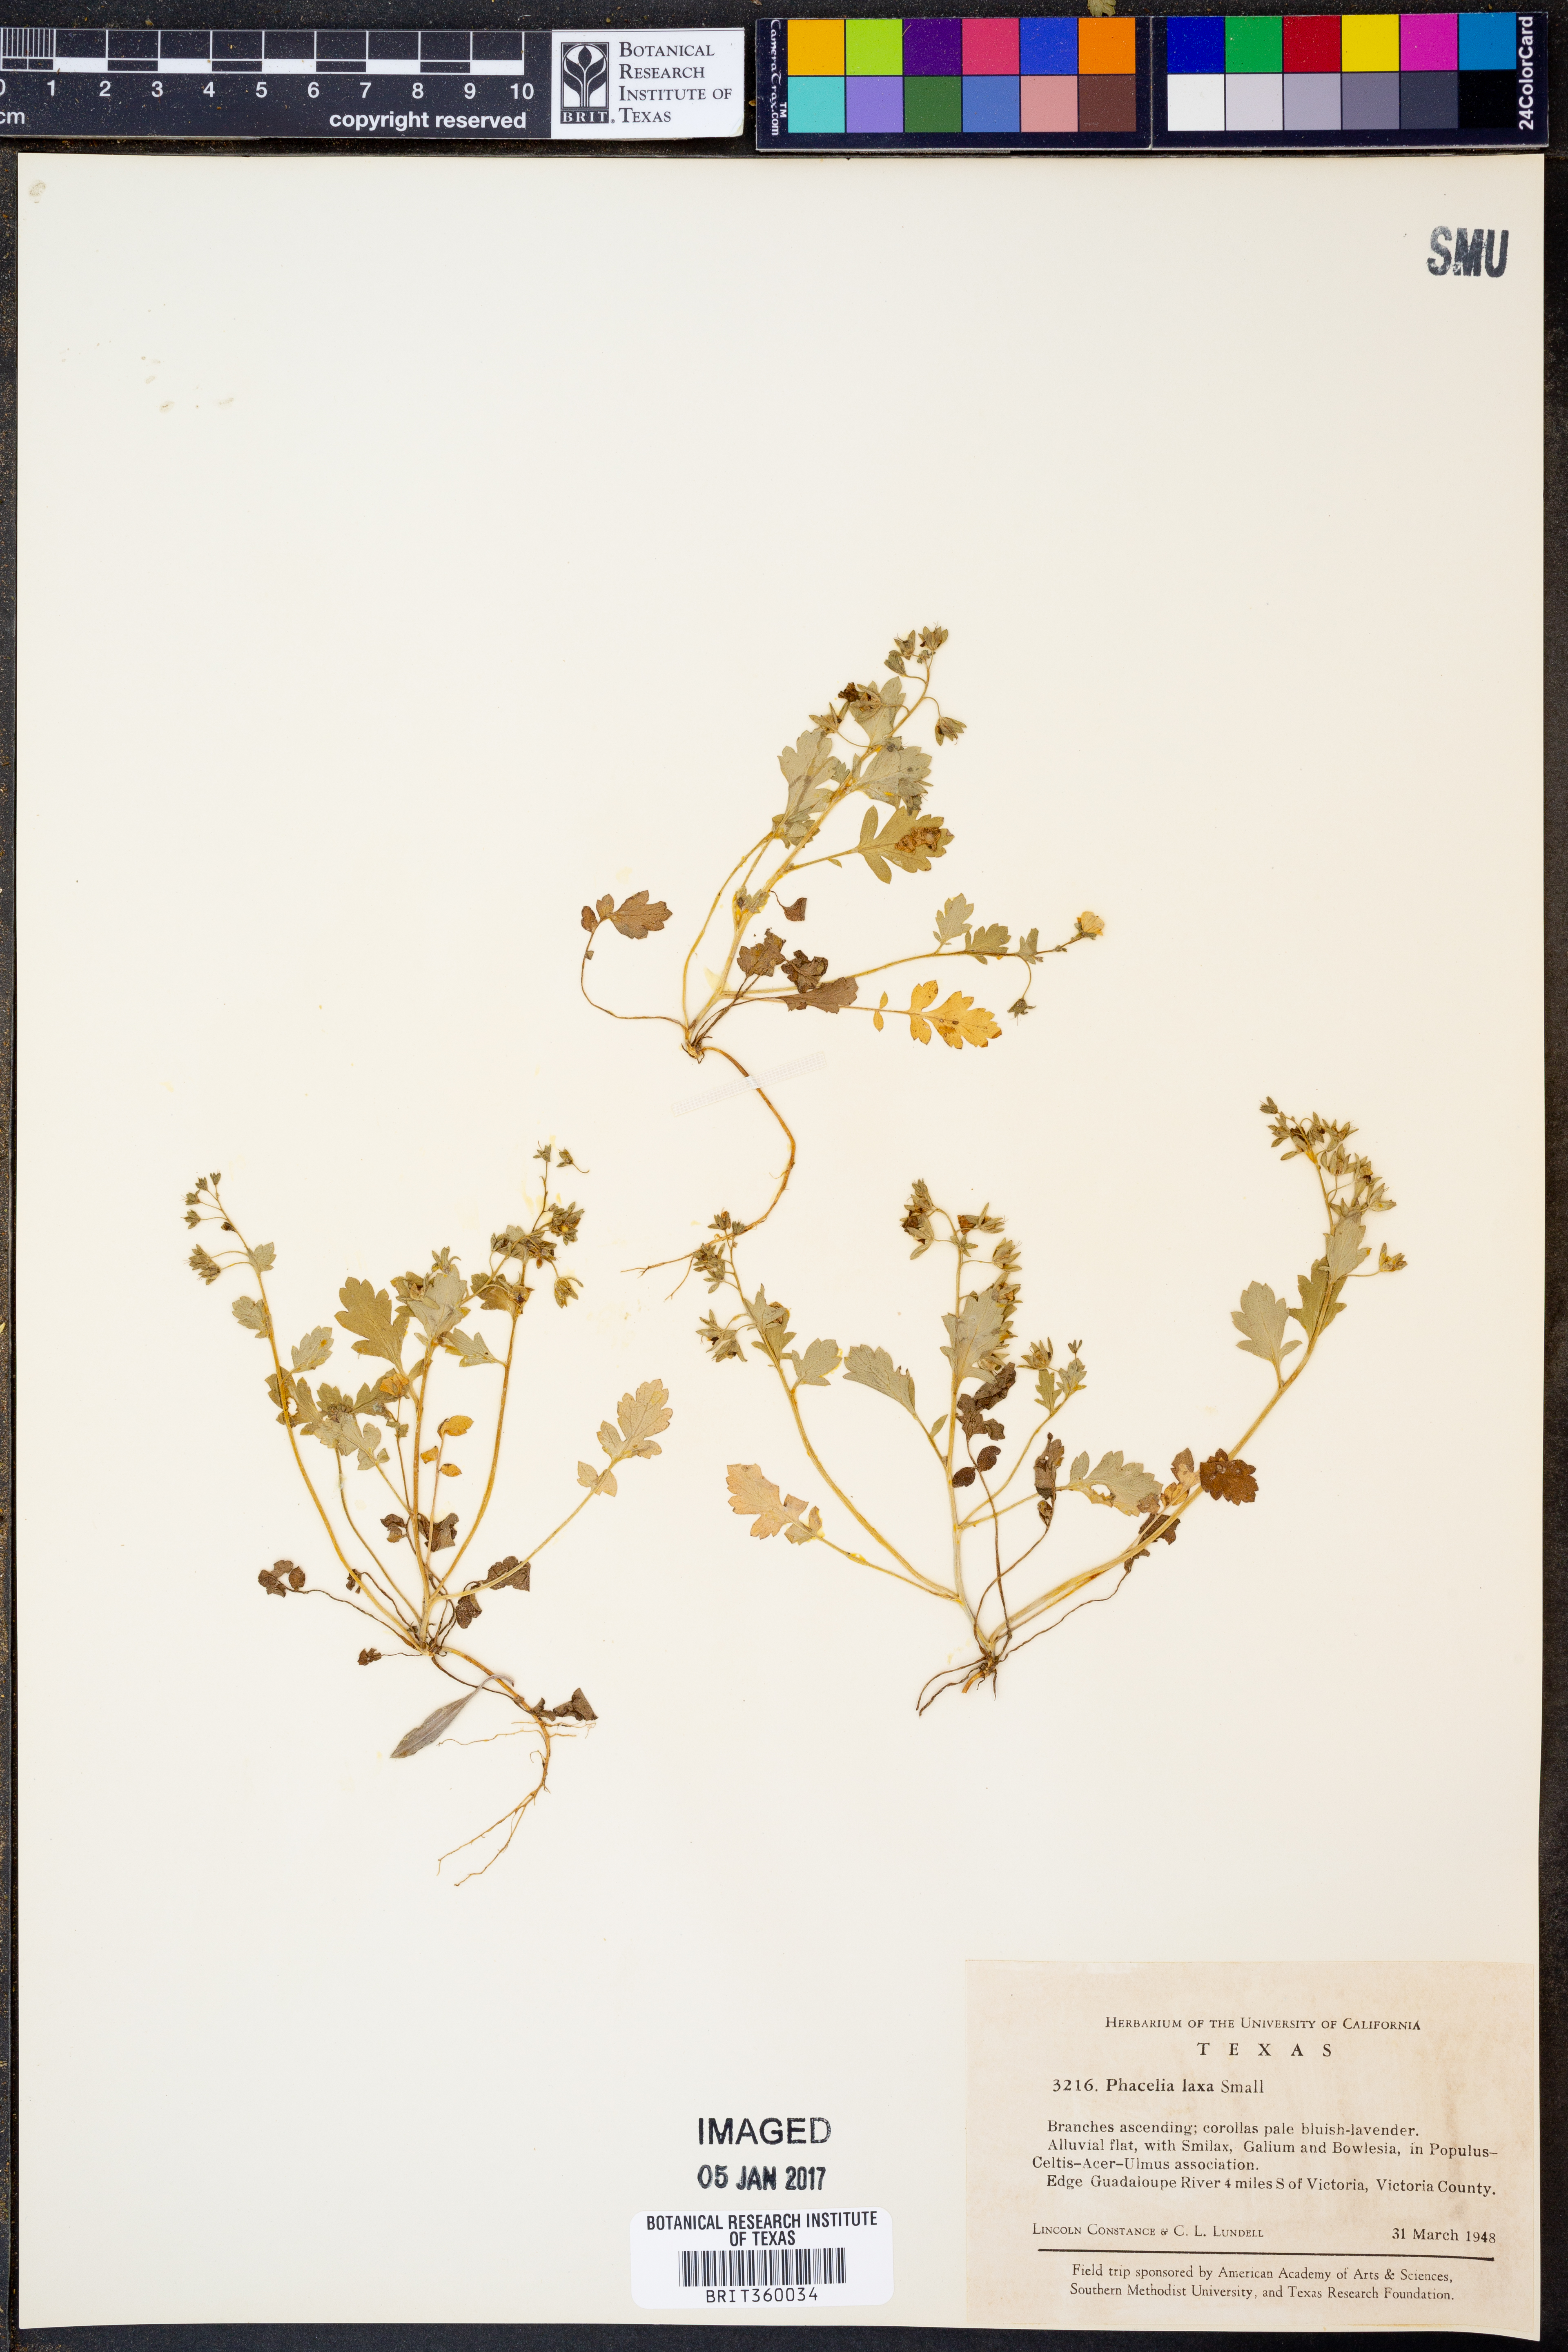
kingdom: Plantae
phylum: Tracheophyta
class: Magnoliopsida
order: Boraginales
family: Hydrophyllaceae
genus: Phacelia
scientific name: Phacelia laxa
